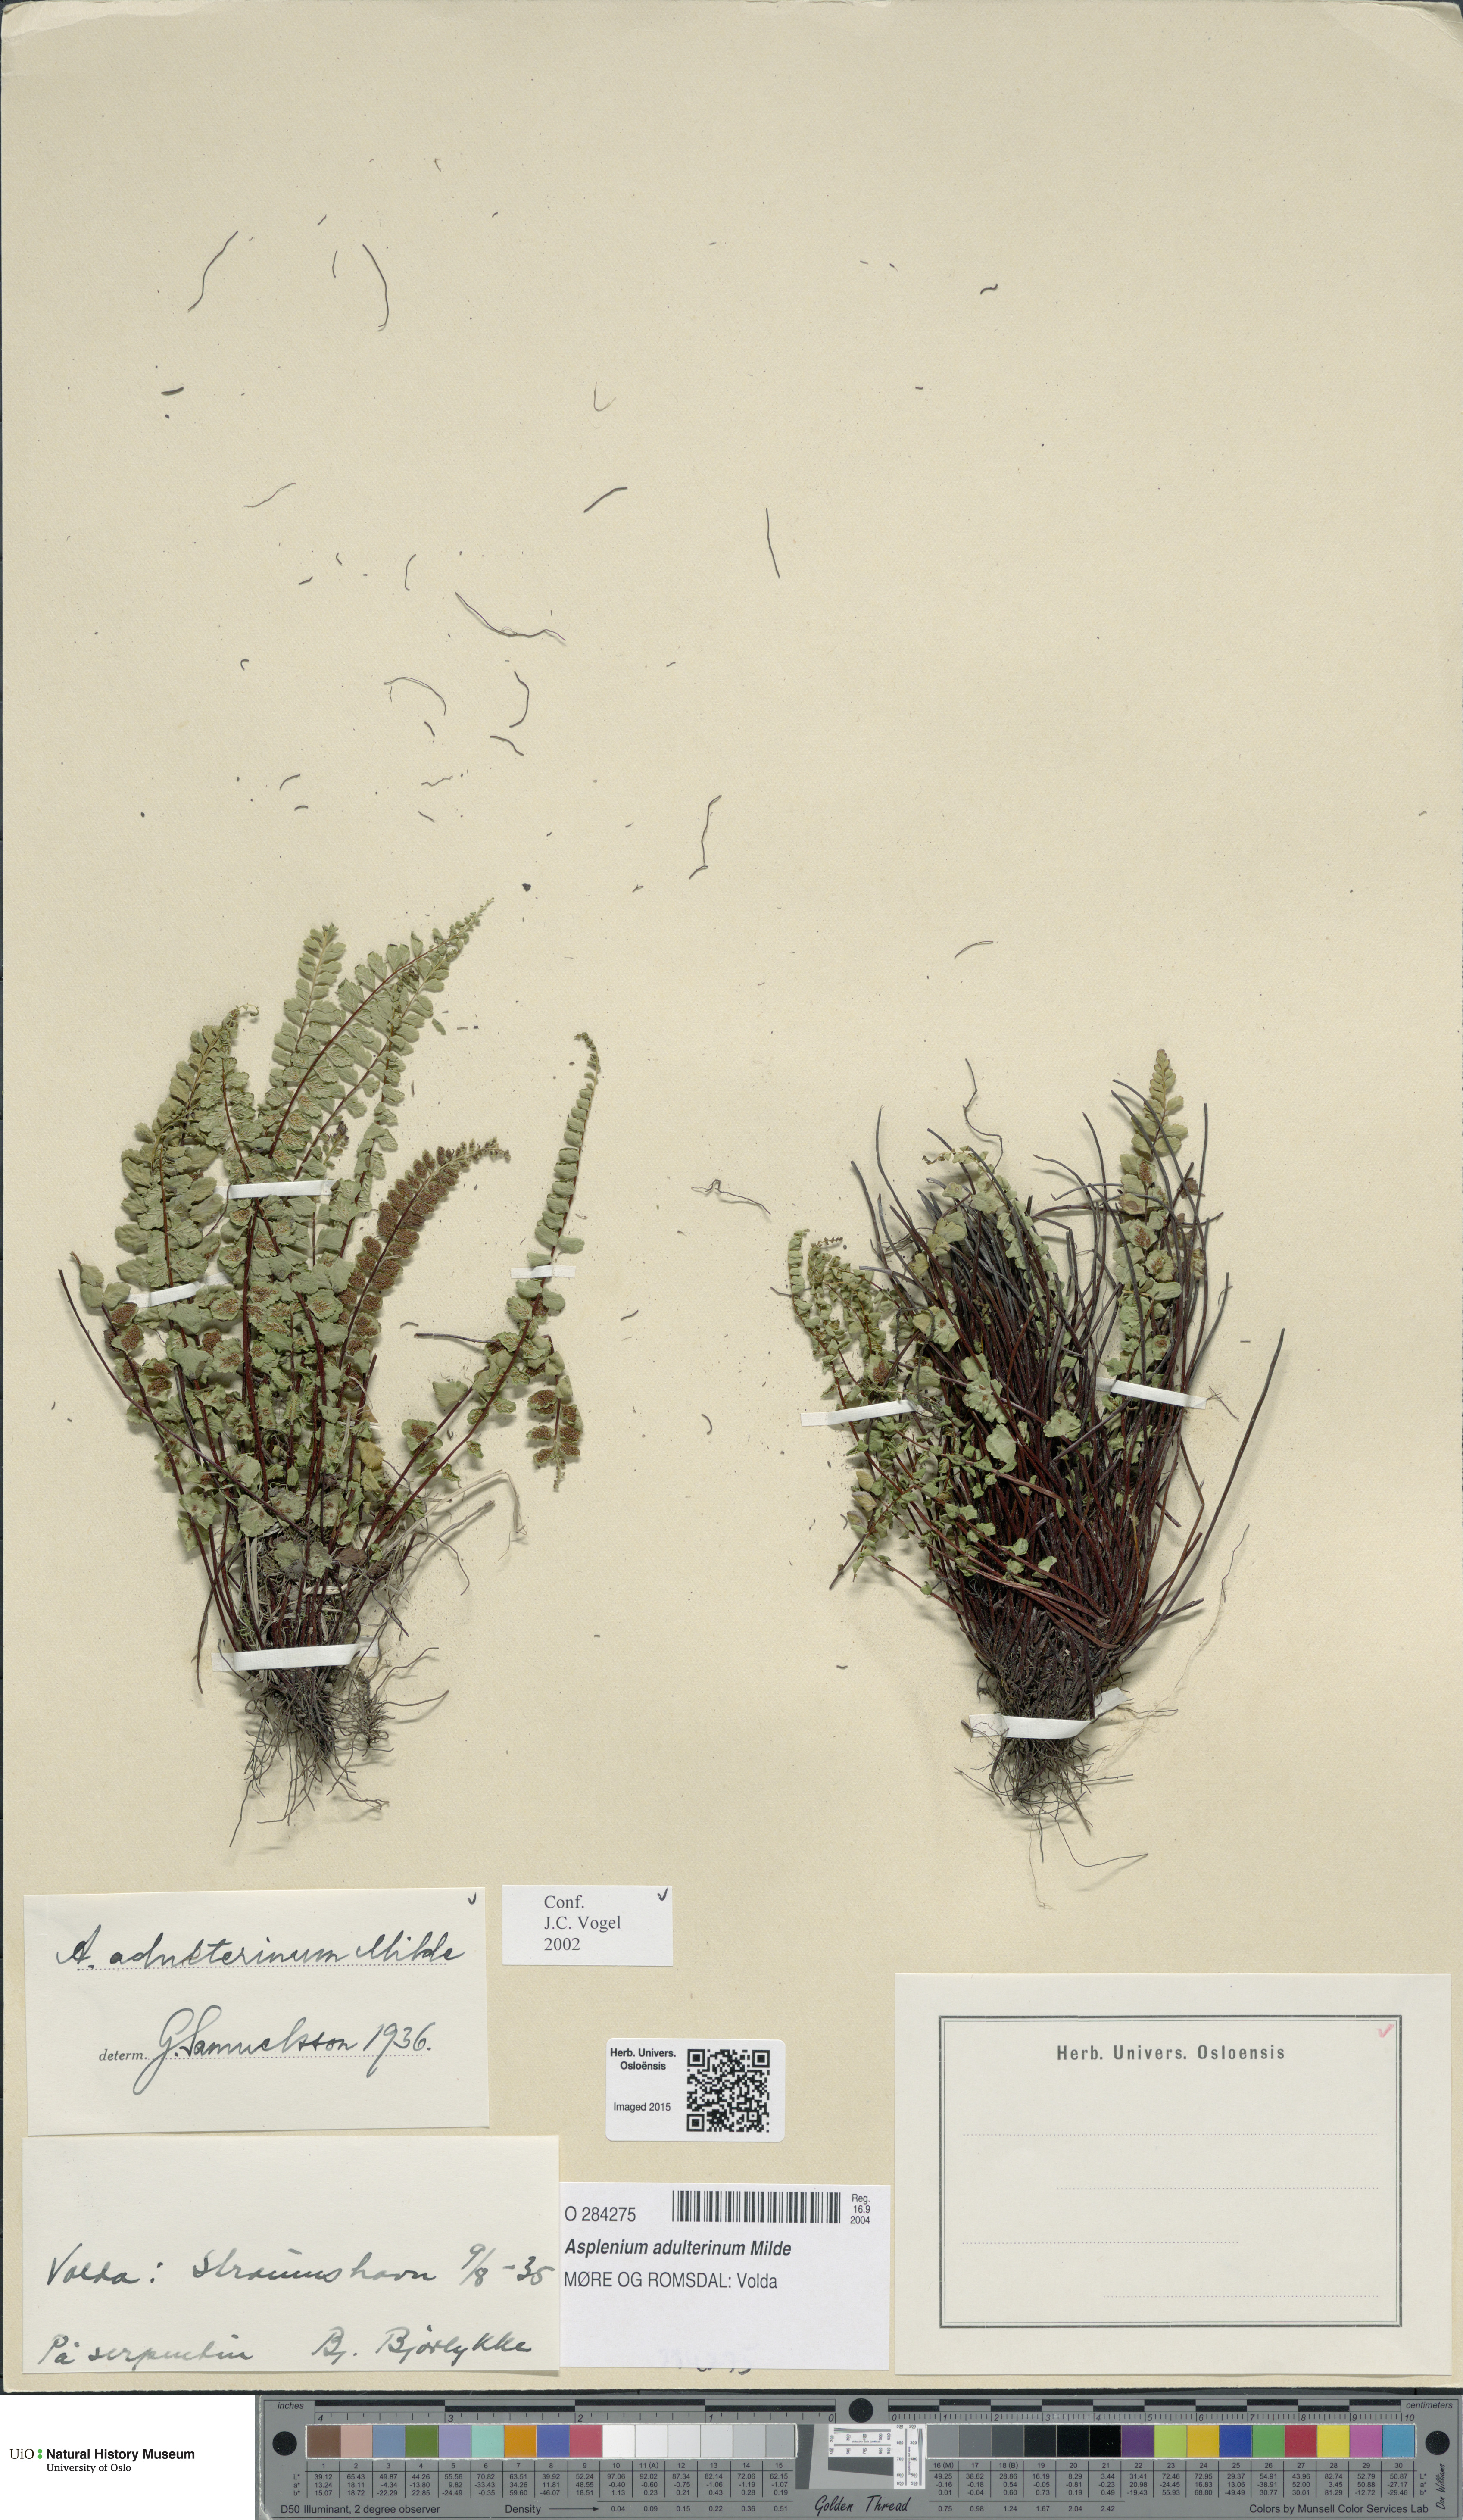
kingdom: Plantae
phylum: Tracheophyta
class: Polypodiopsida
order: Polypodiales
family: Aspleniaceae
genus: Asplenium
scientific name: Asplenium adulterinum
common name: Adulterated spleenwort
